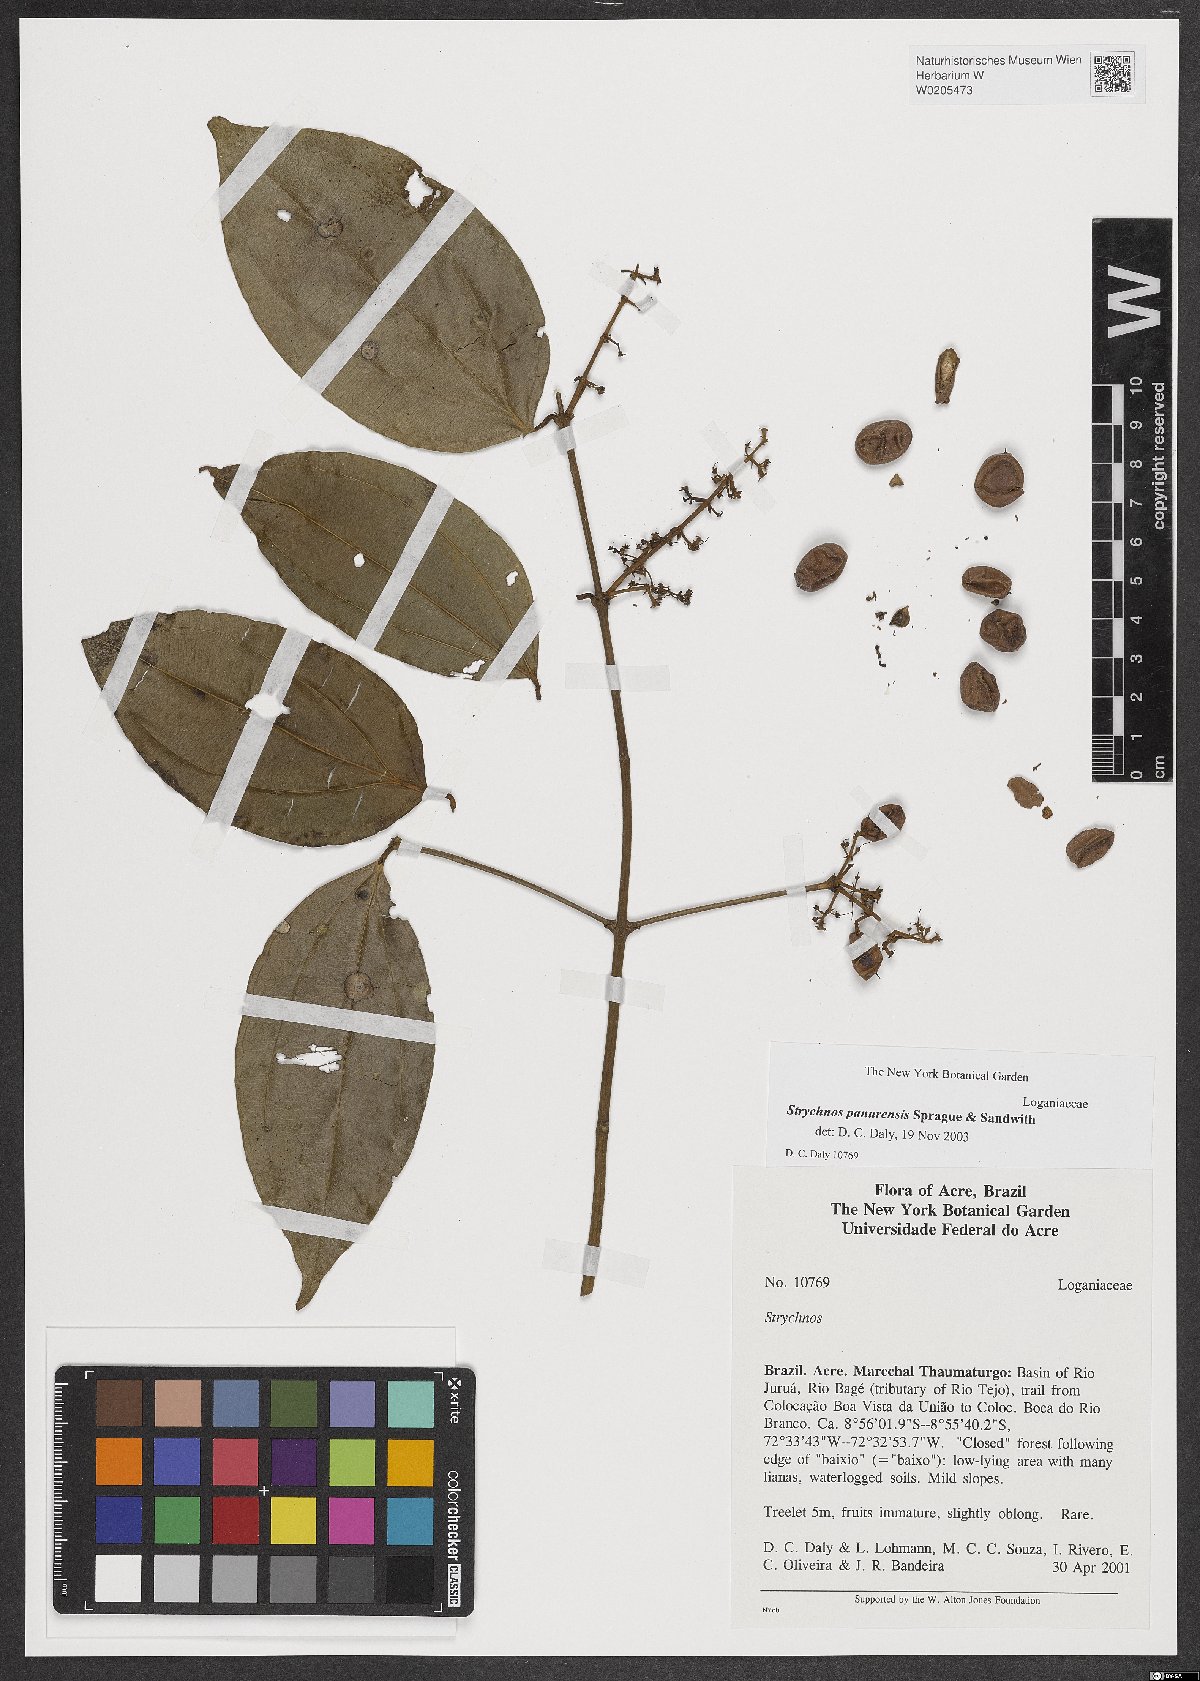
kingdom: Plantae
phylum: Tracheophyta
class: Magnoliopsida
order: Gentianales
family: Loganiaceae
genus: Strychnos
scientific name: Strychnos gubleri
